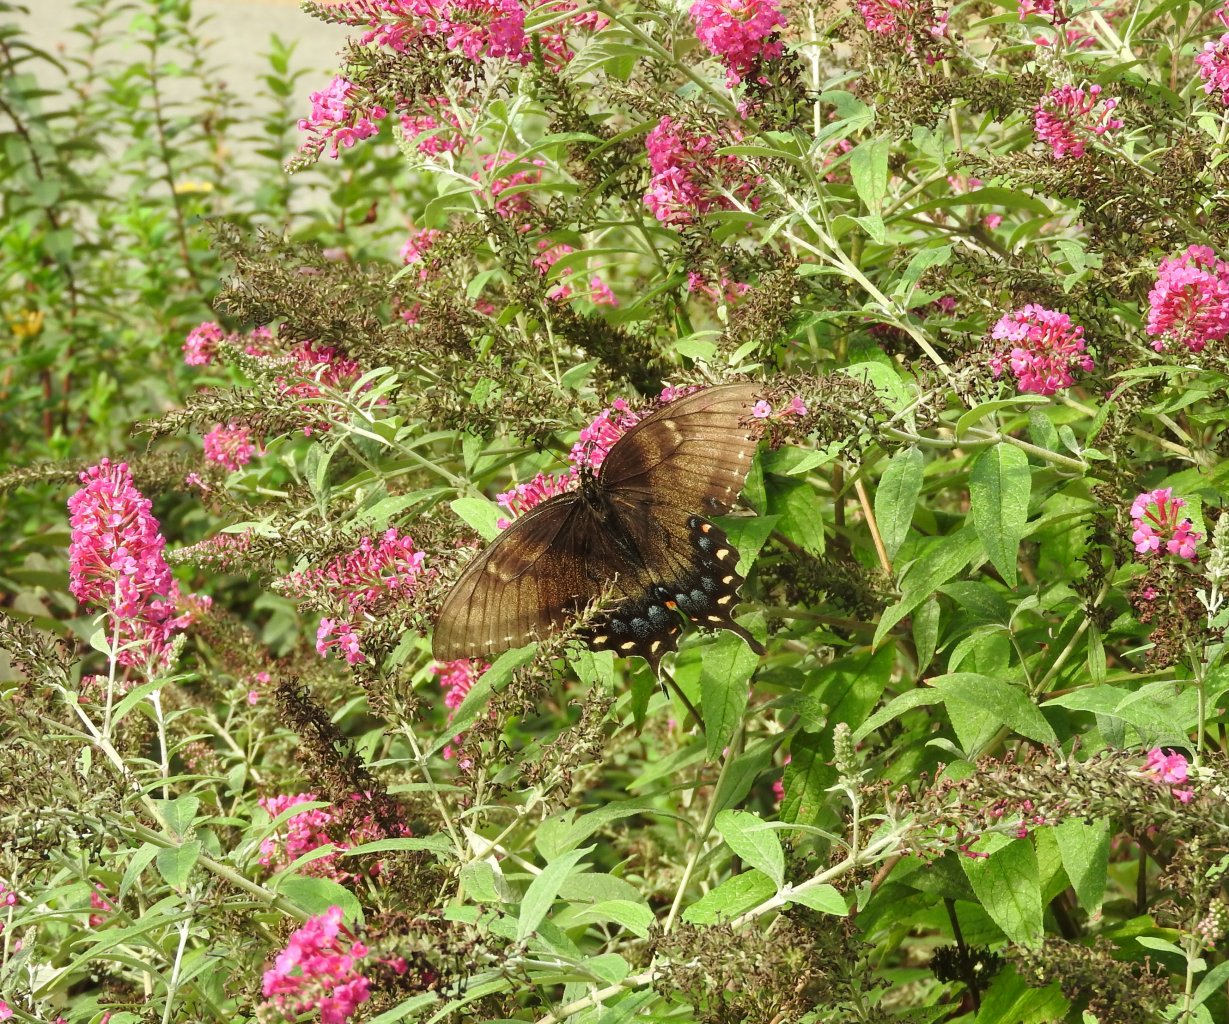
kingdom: Animalia
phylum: Arthropoda
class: Insecta
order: Lepidoptera
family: Papilionidae
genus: Pterourus
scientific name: Pterourus glaucus
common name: Eastern Tiger Swallowtail
